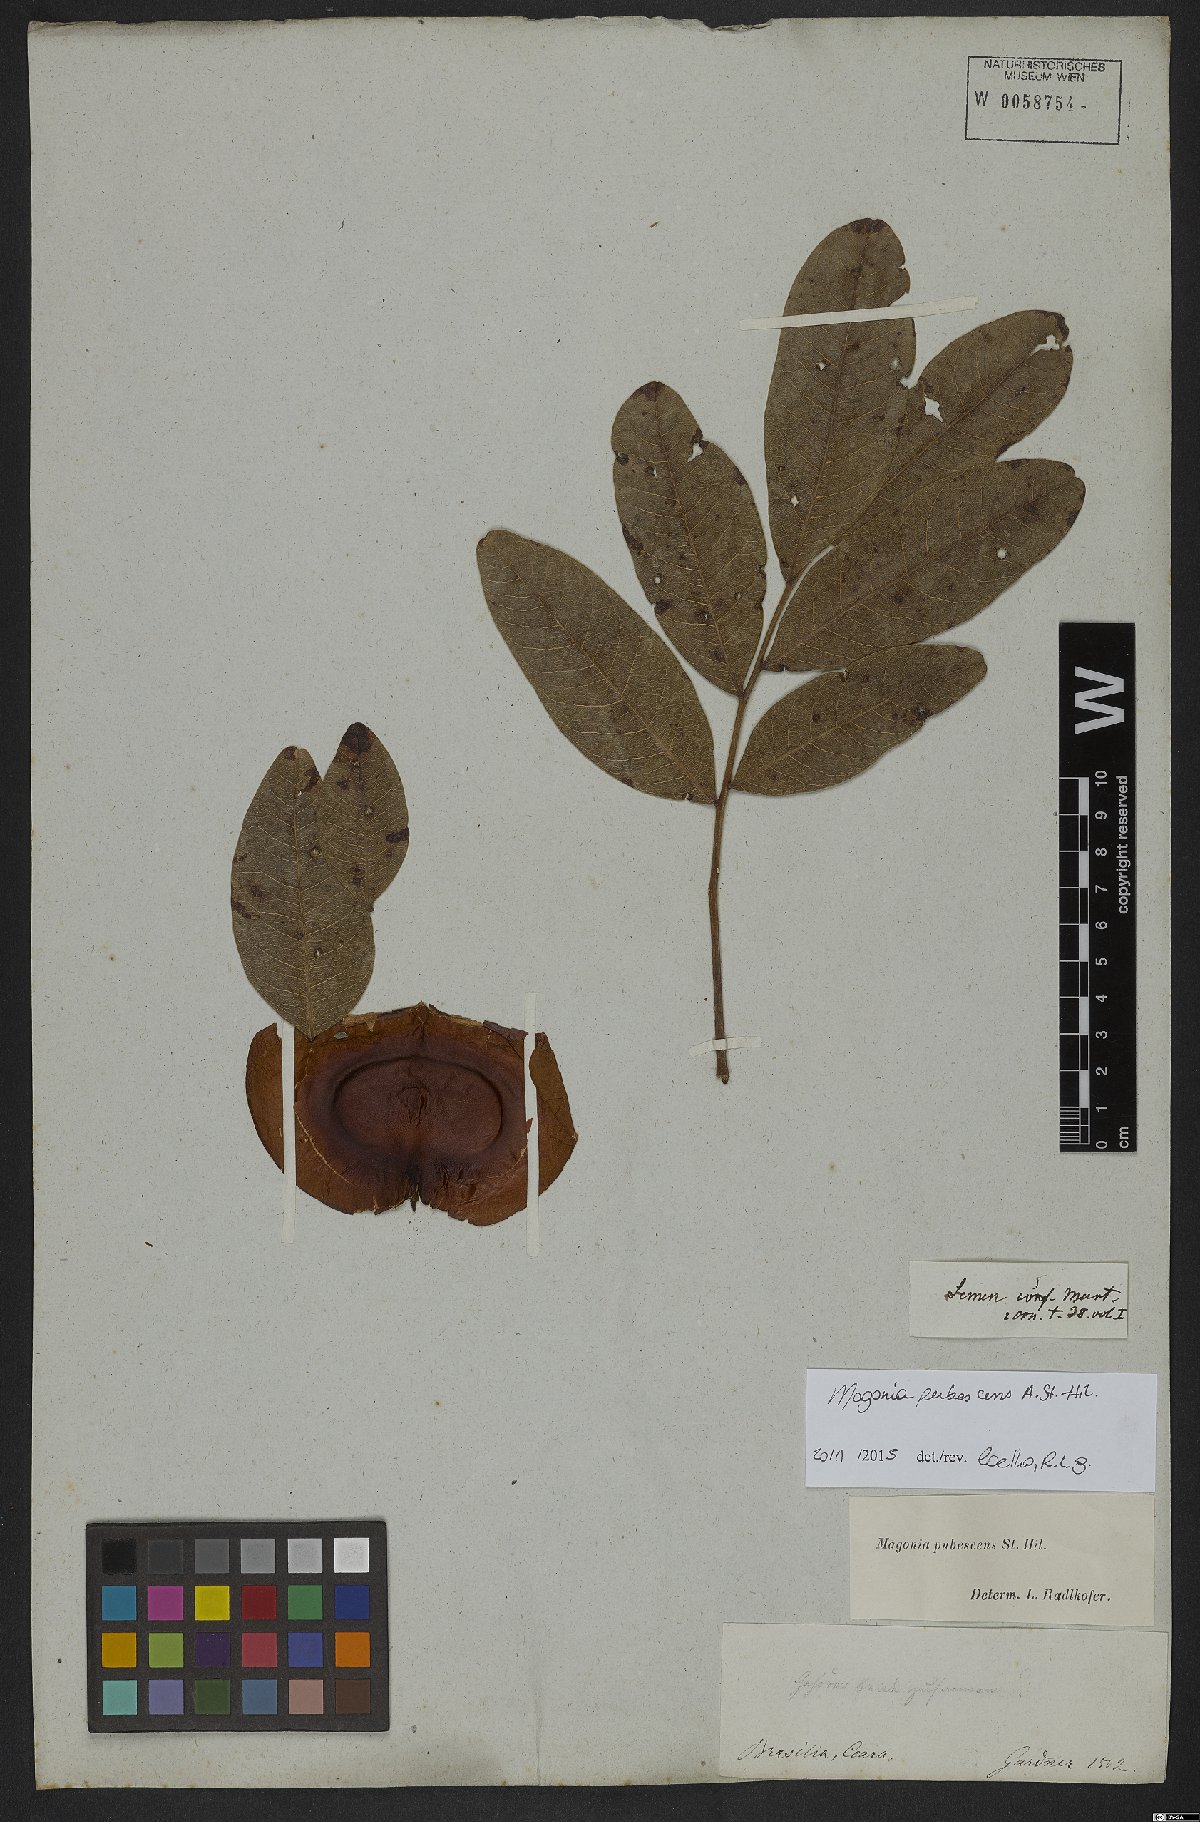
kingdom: Plantae
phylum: Tracheophyta
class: Magnoliopsida
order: Sapindales
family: Sapindaceae
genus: Magonia
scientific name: Magonia pubescens
